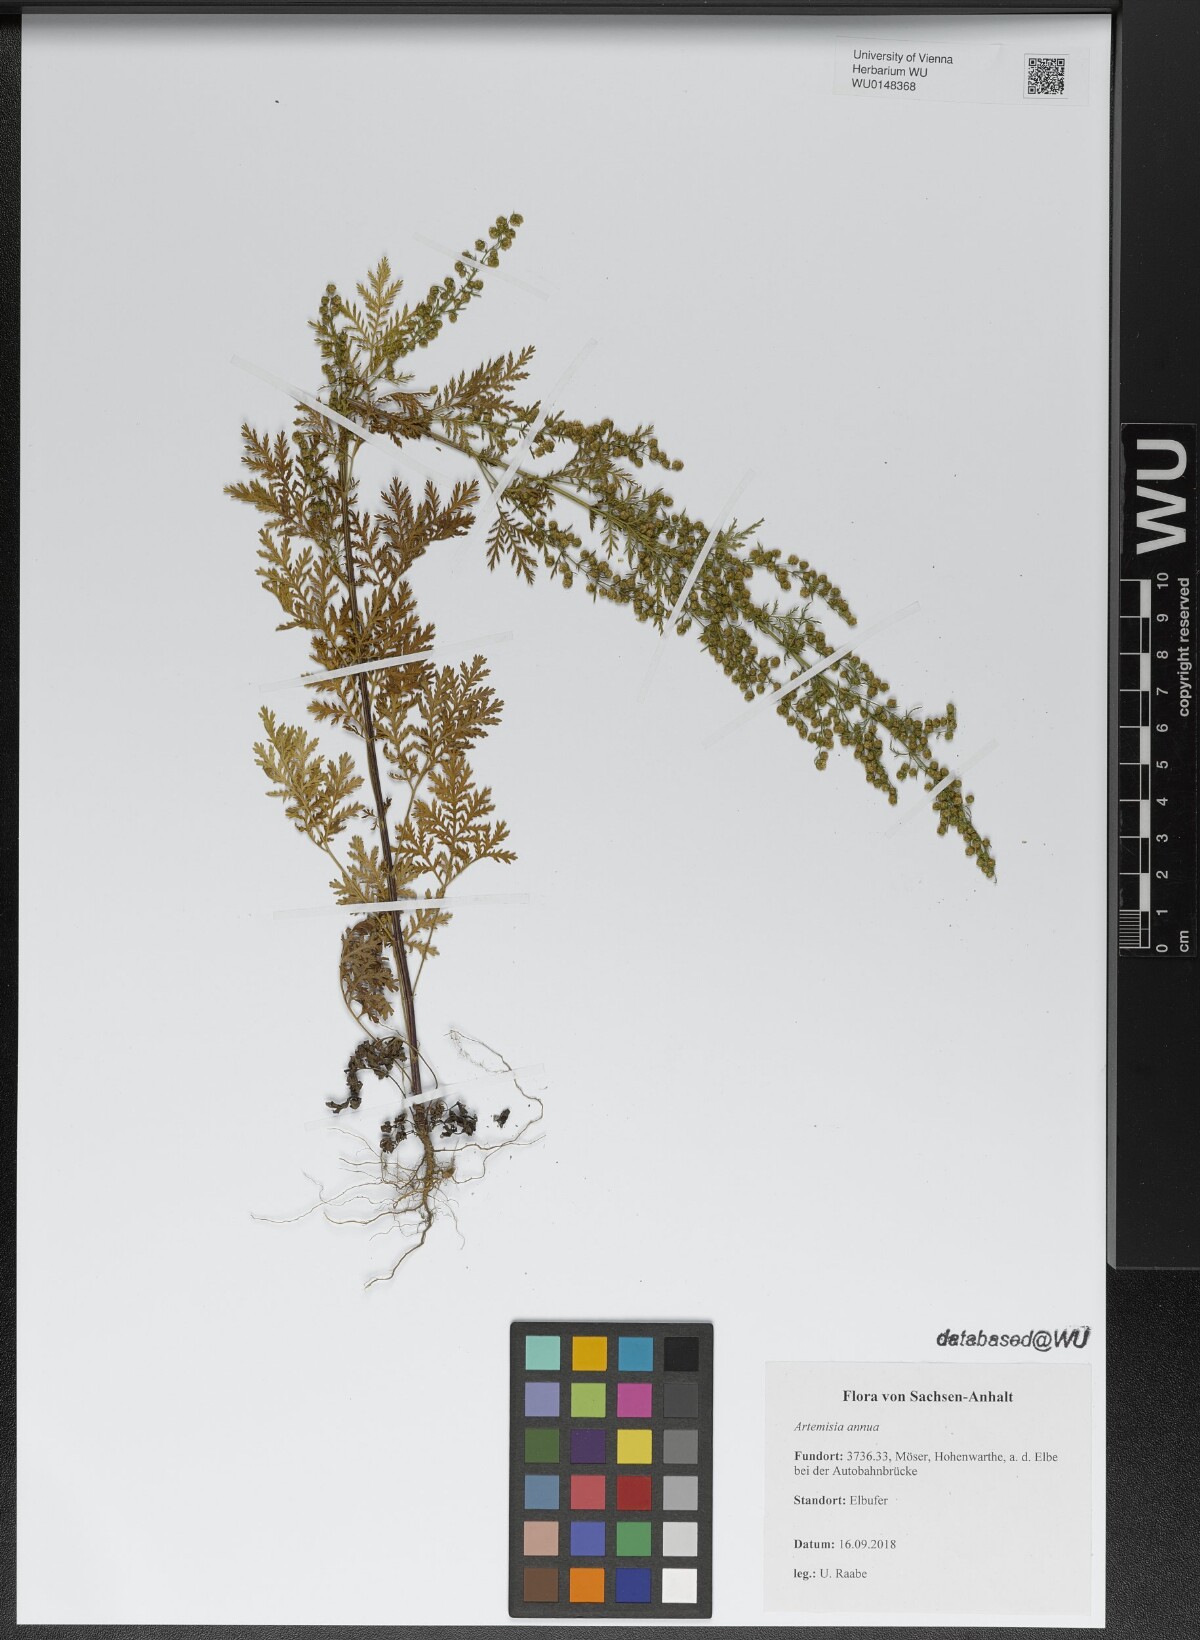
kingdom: Plantae
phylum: Tracheophyta
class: Magnoliopsida
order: Asterales
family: Asteraceae
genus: Artemisia
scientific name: Artemisia annua
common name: Sweet sagewort
